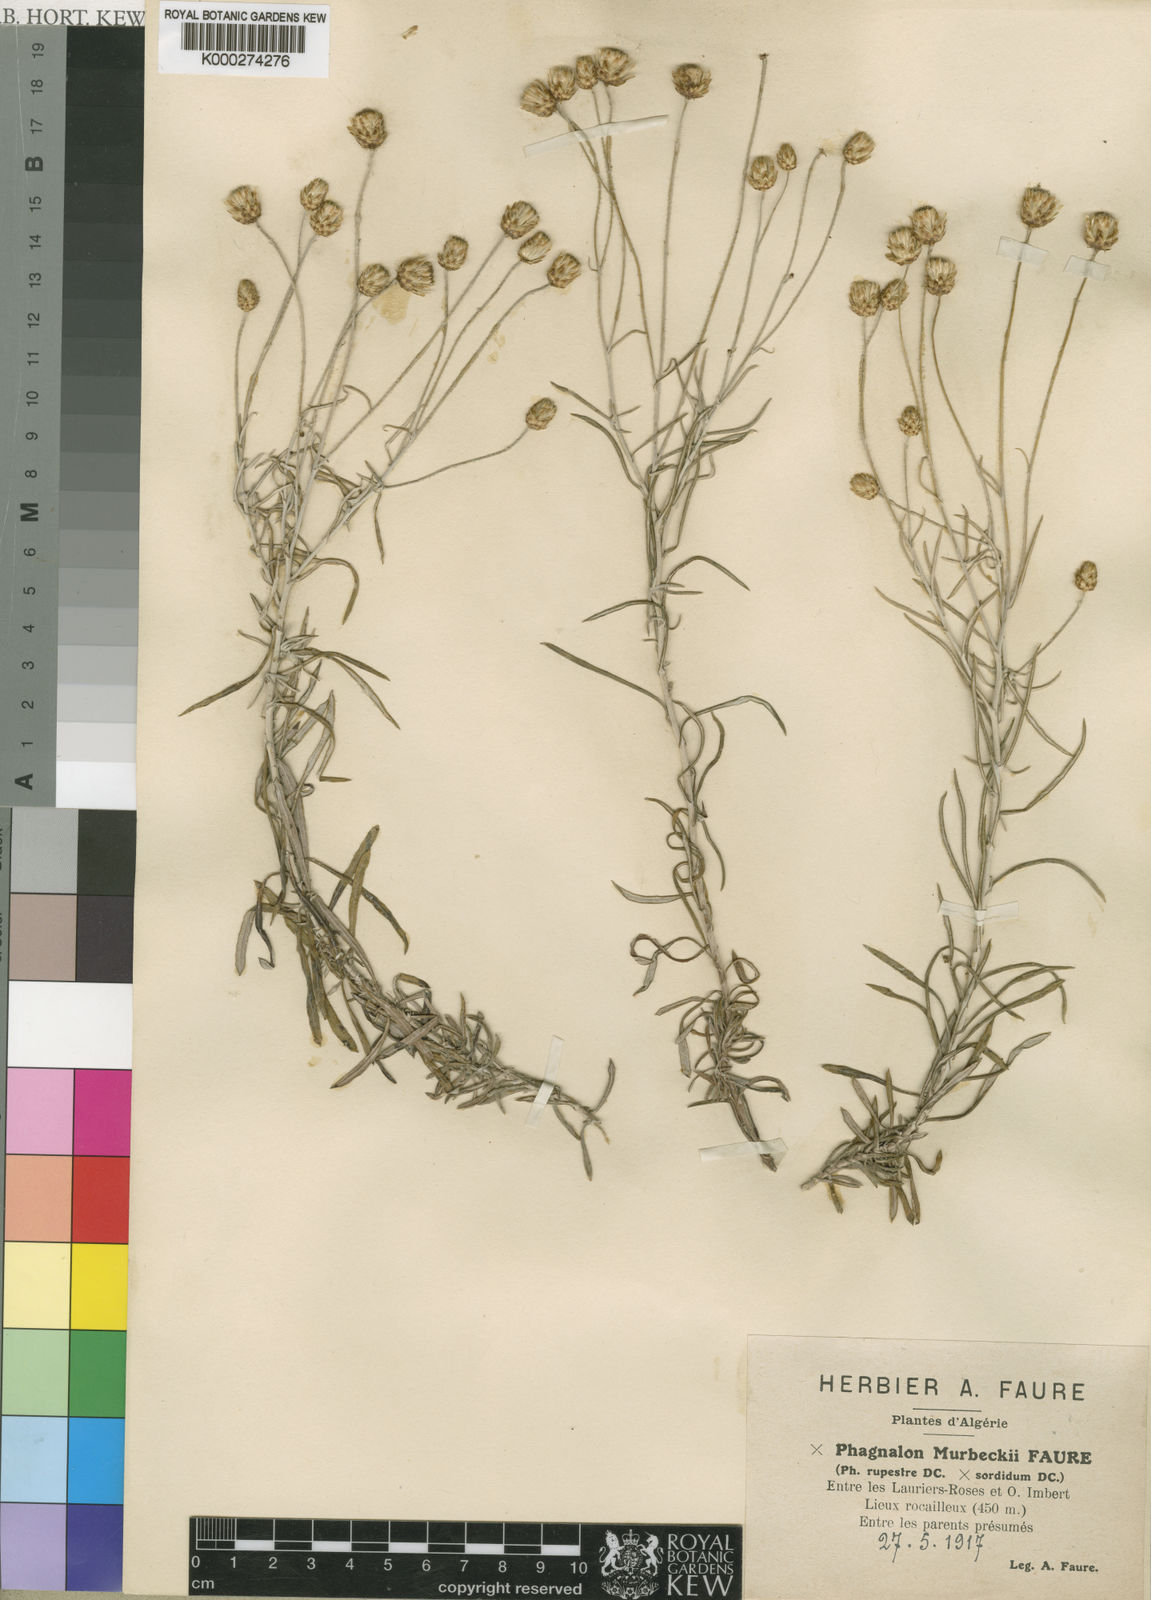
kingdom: Plantae
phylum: Tracheophyta
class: Magnoliopsida
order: Asterales
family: Asteraceae
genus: Phagnalon
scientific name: Phagnalon murbeckii
